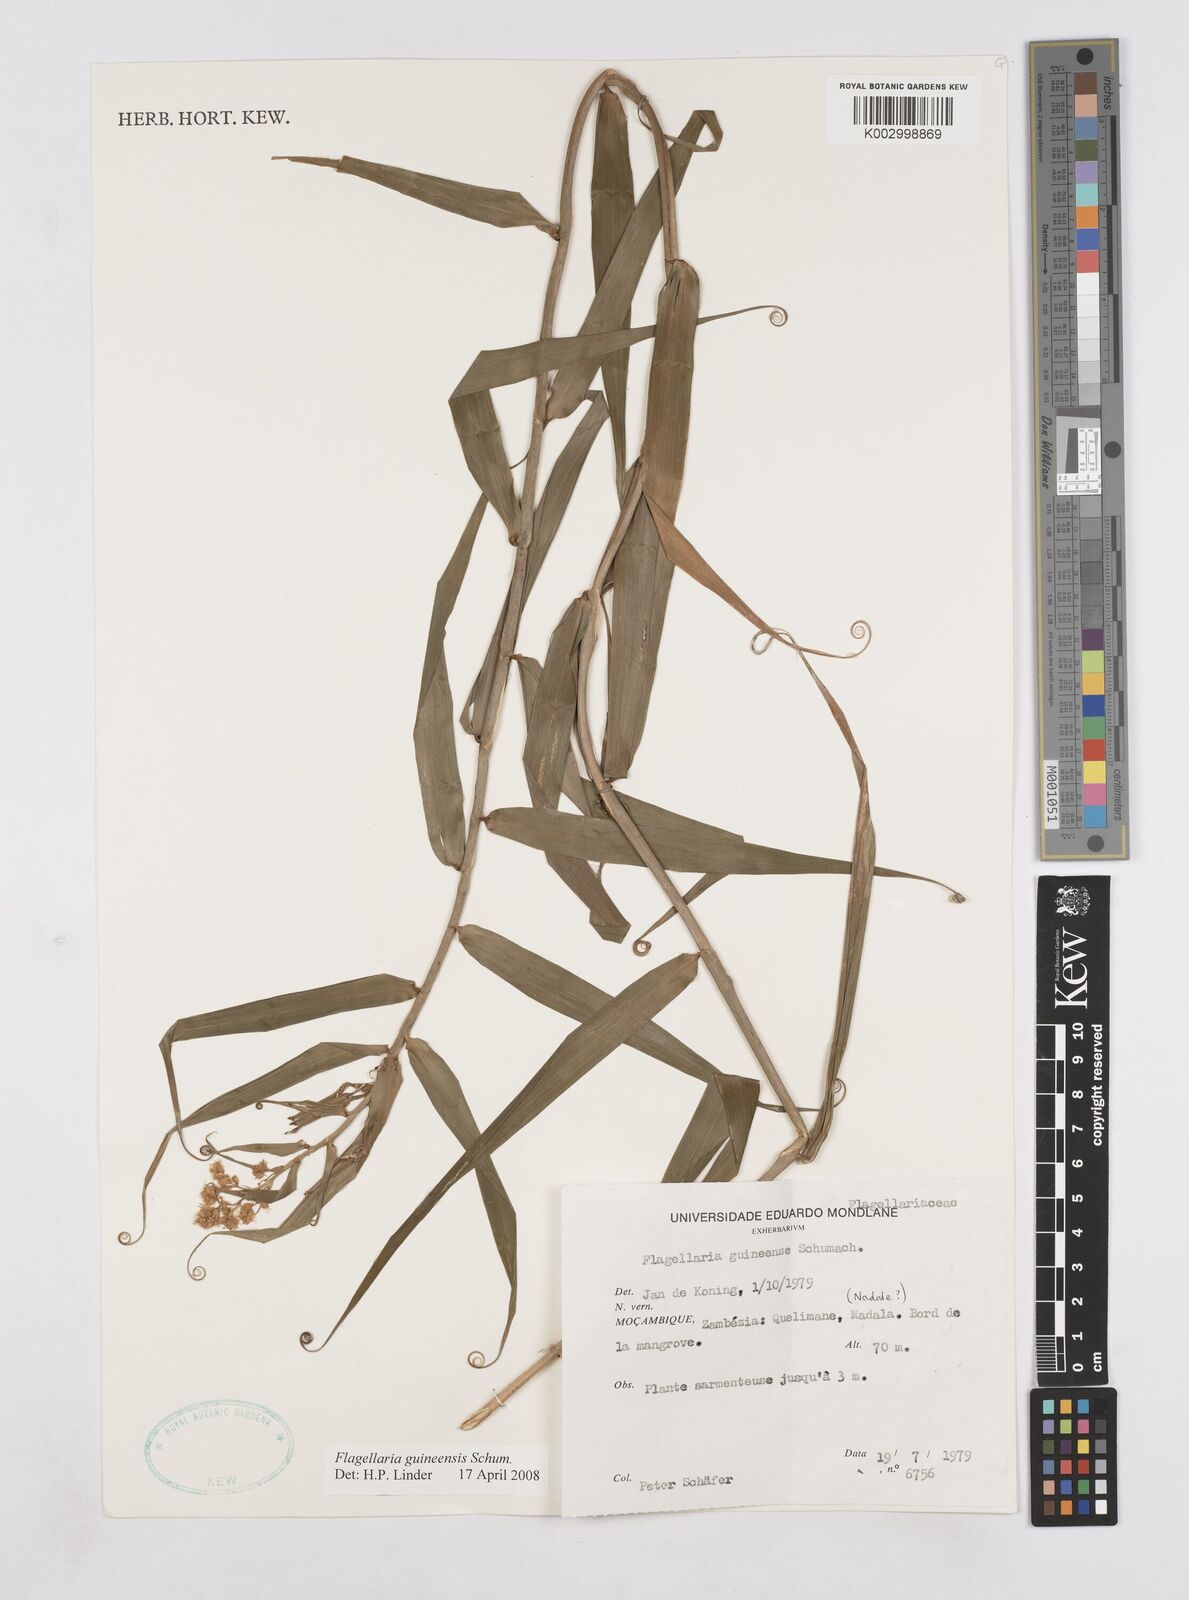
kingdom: Plantae
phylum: Tracheophyta
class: Liliopsida
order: Poales
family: Flagellariaceae
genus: Flagellaria
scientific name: Flagellaria guineensis
